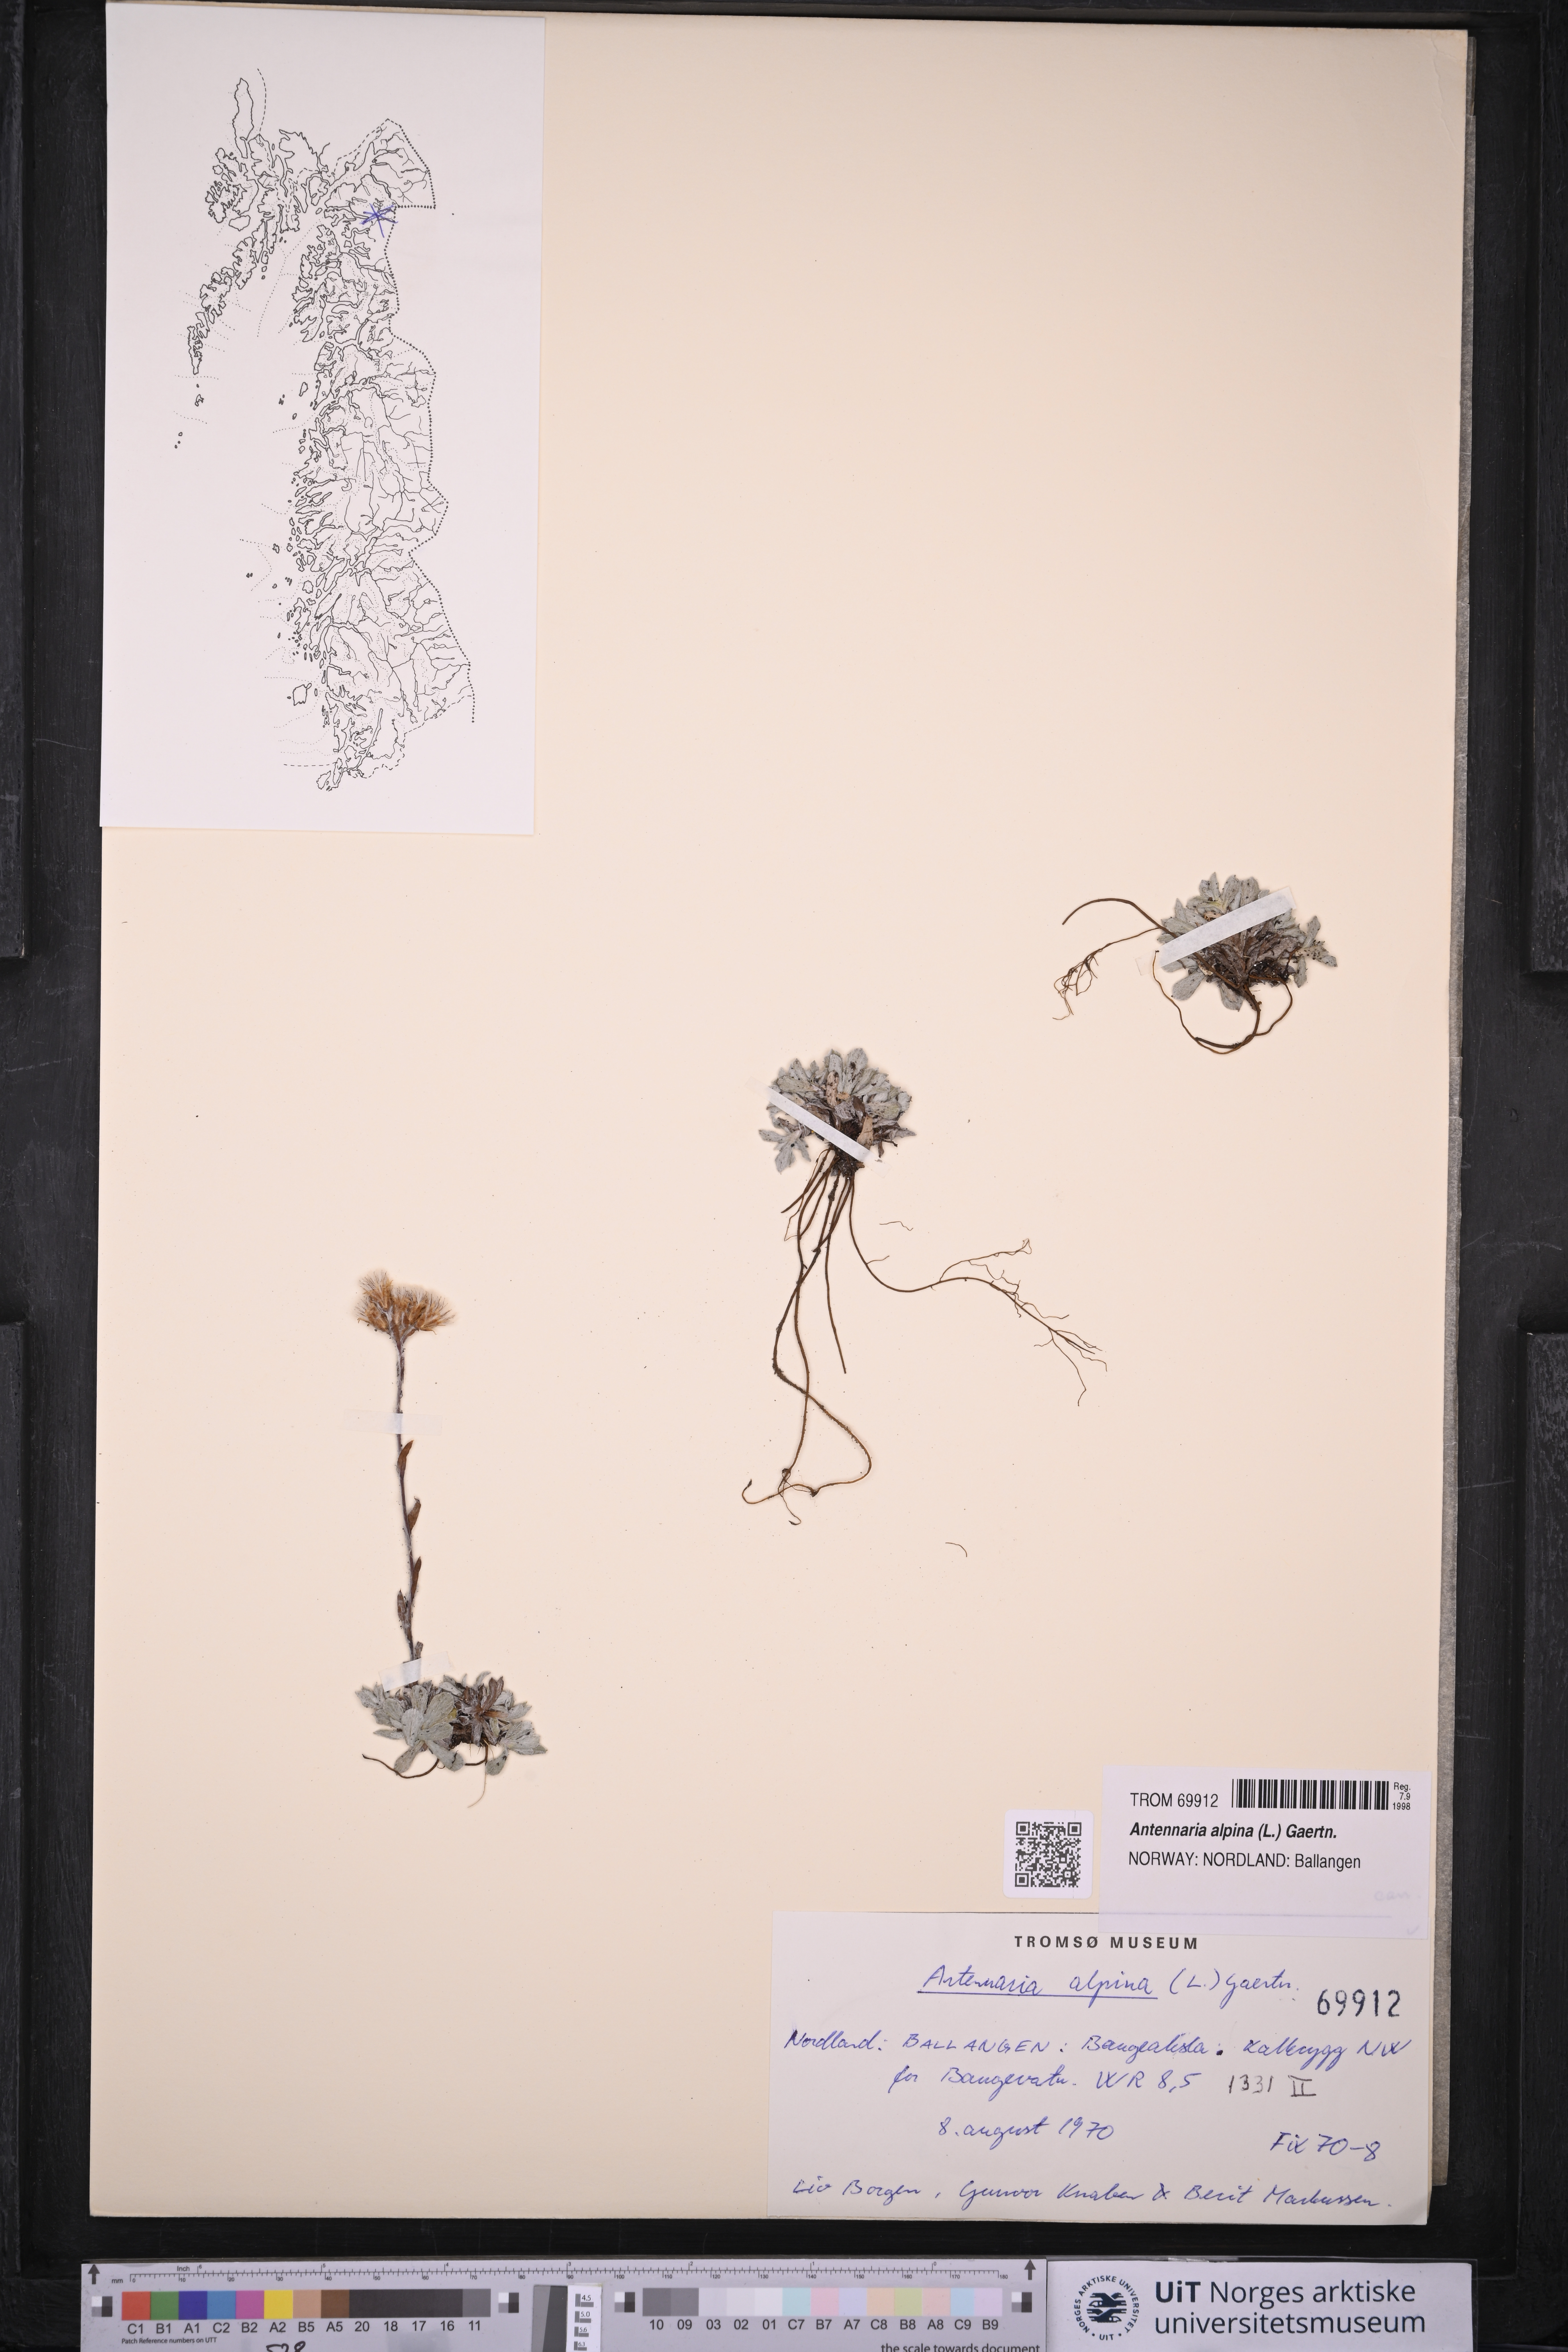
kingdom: Plantae
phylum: Tracheophyta
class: Magnoliopsida
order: Asterales
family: Asteraceae
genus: Antennaria
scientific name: Antennaria alpina
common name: Alpine pussytoes
